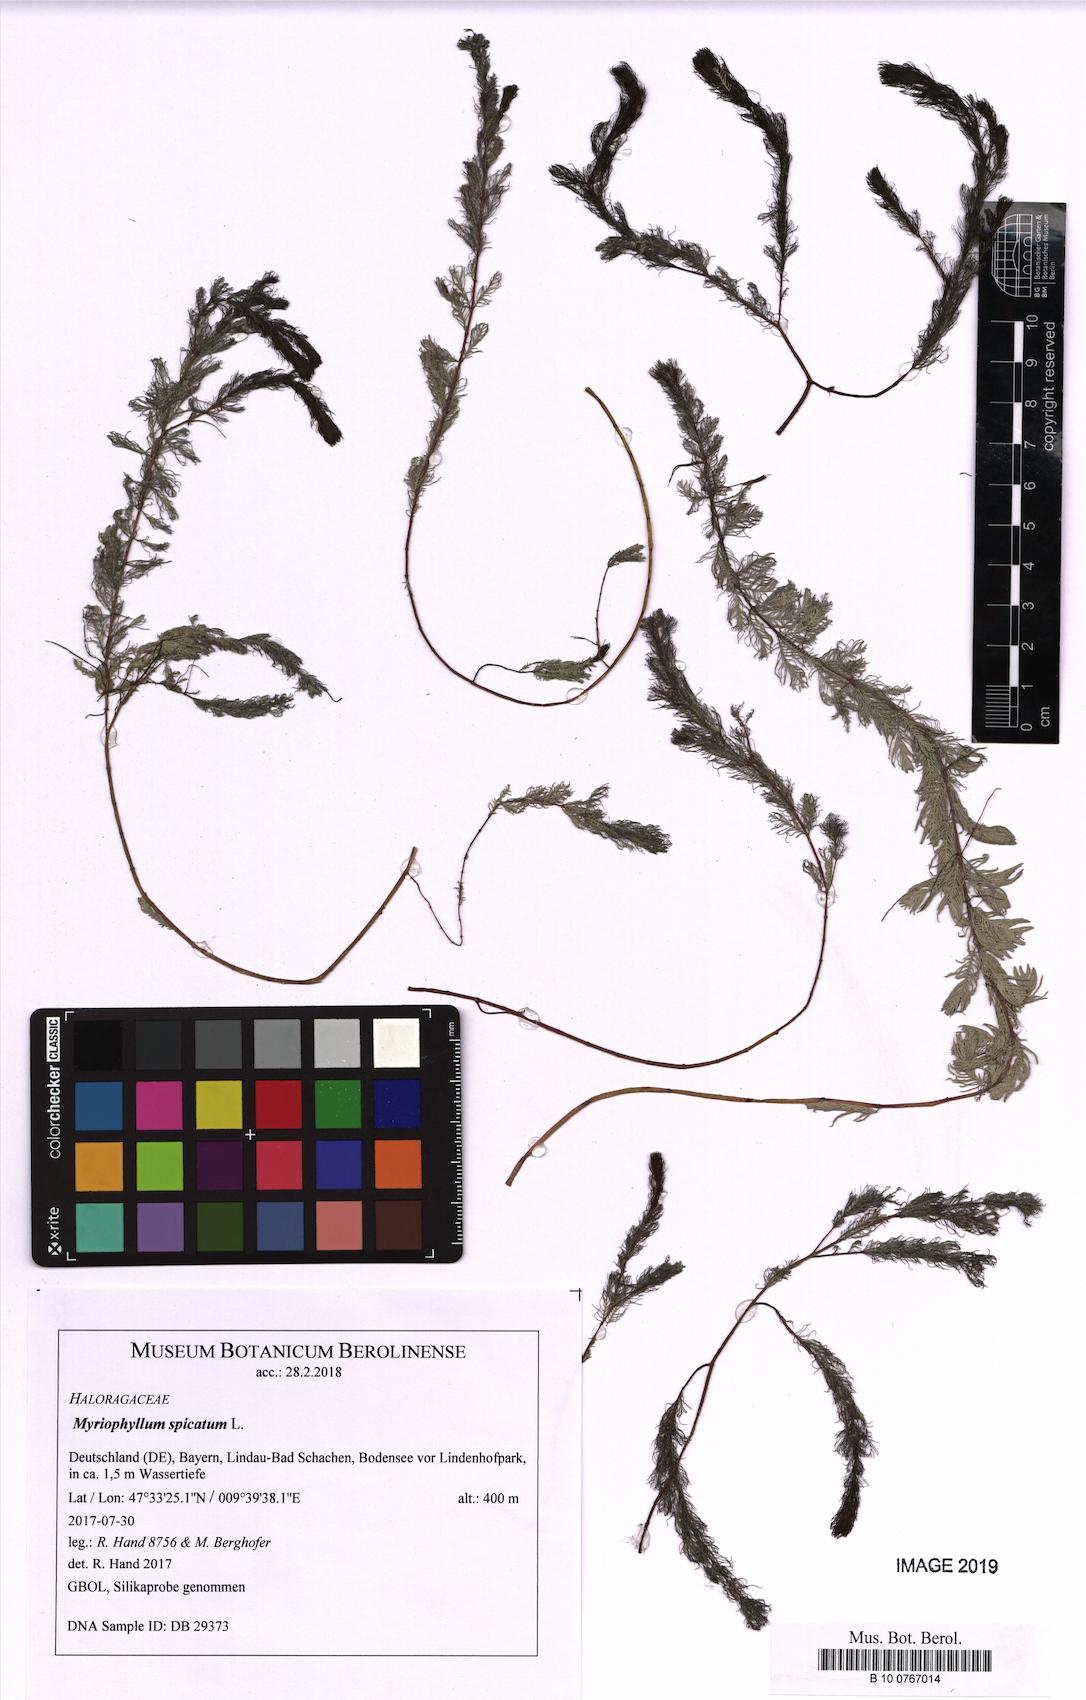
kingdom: Plantae
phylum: Tracheophyta
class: Magnoliopsida
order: Saxifragales
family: Haloragaceae
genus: Myriophyllum
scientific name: Myriophyllum spicatum
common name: Spiked water-milfoil
